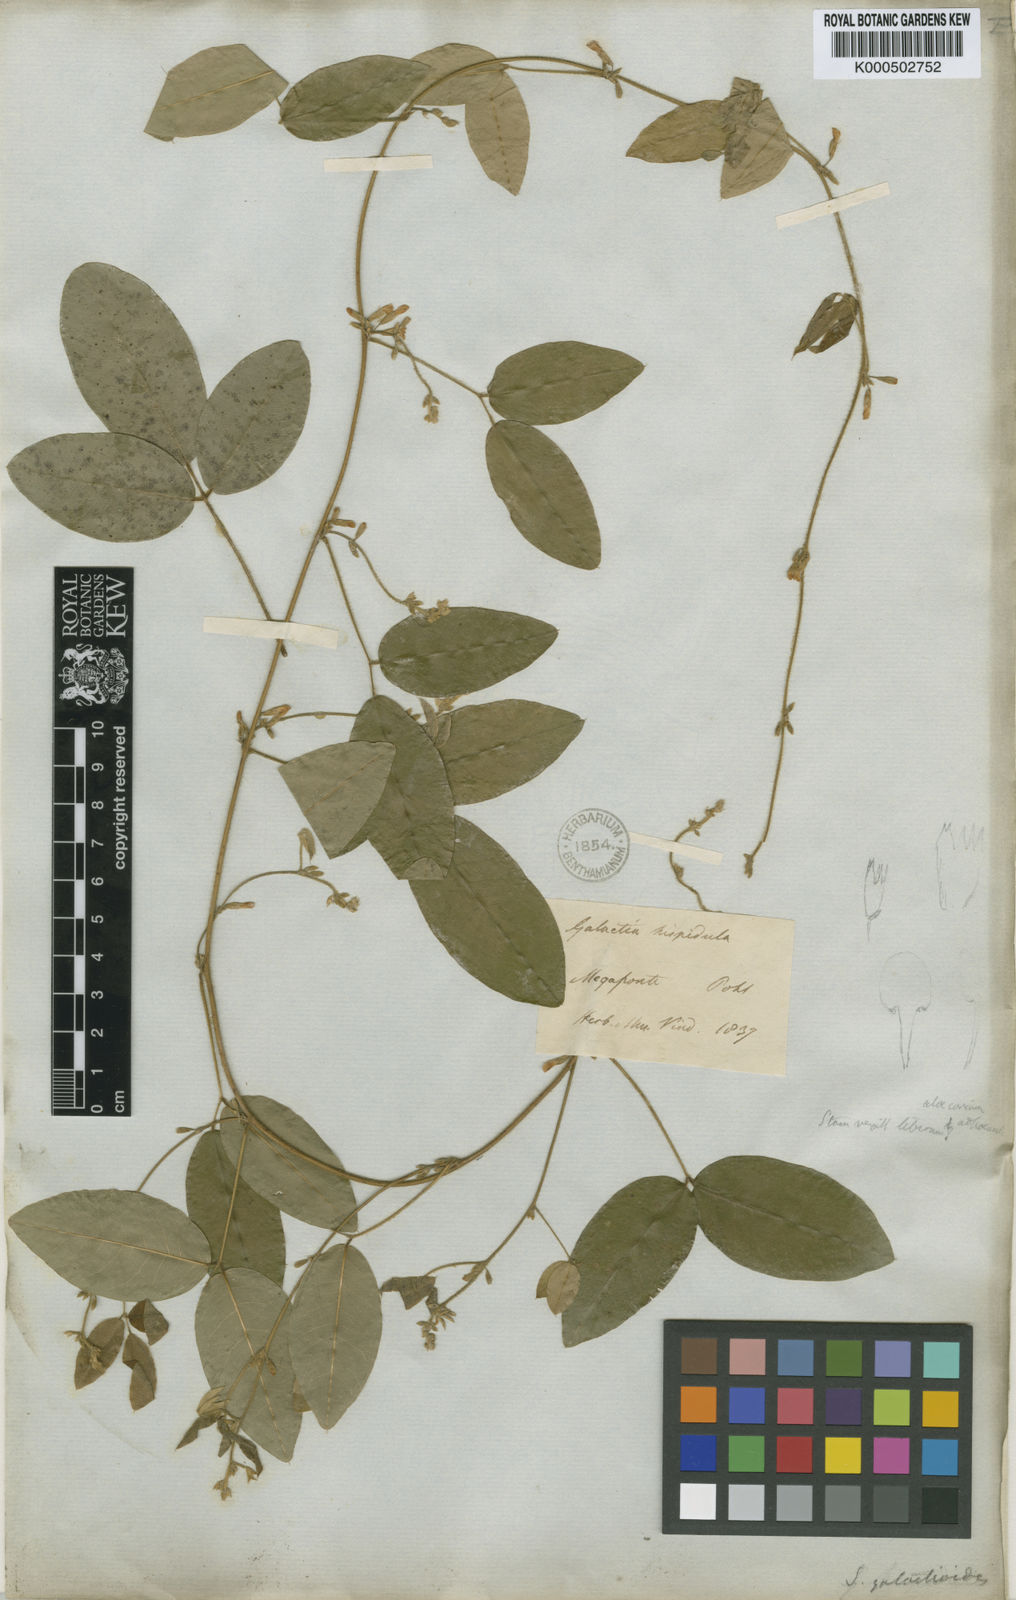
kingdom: Plantae
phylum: Tracheophyta
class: Magnoliopsida
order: Fabales
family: Fabaceae
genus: Calopogonium
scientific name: Calopogonium
